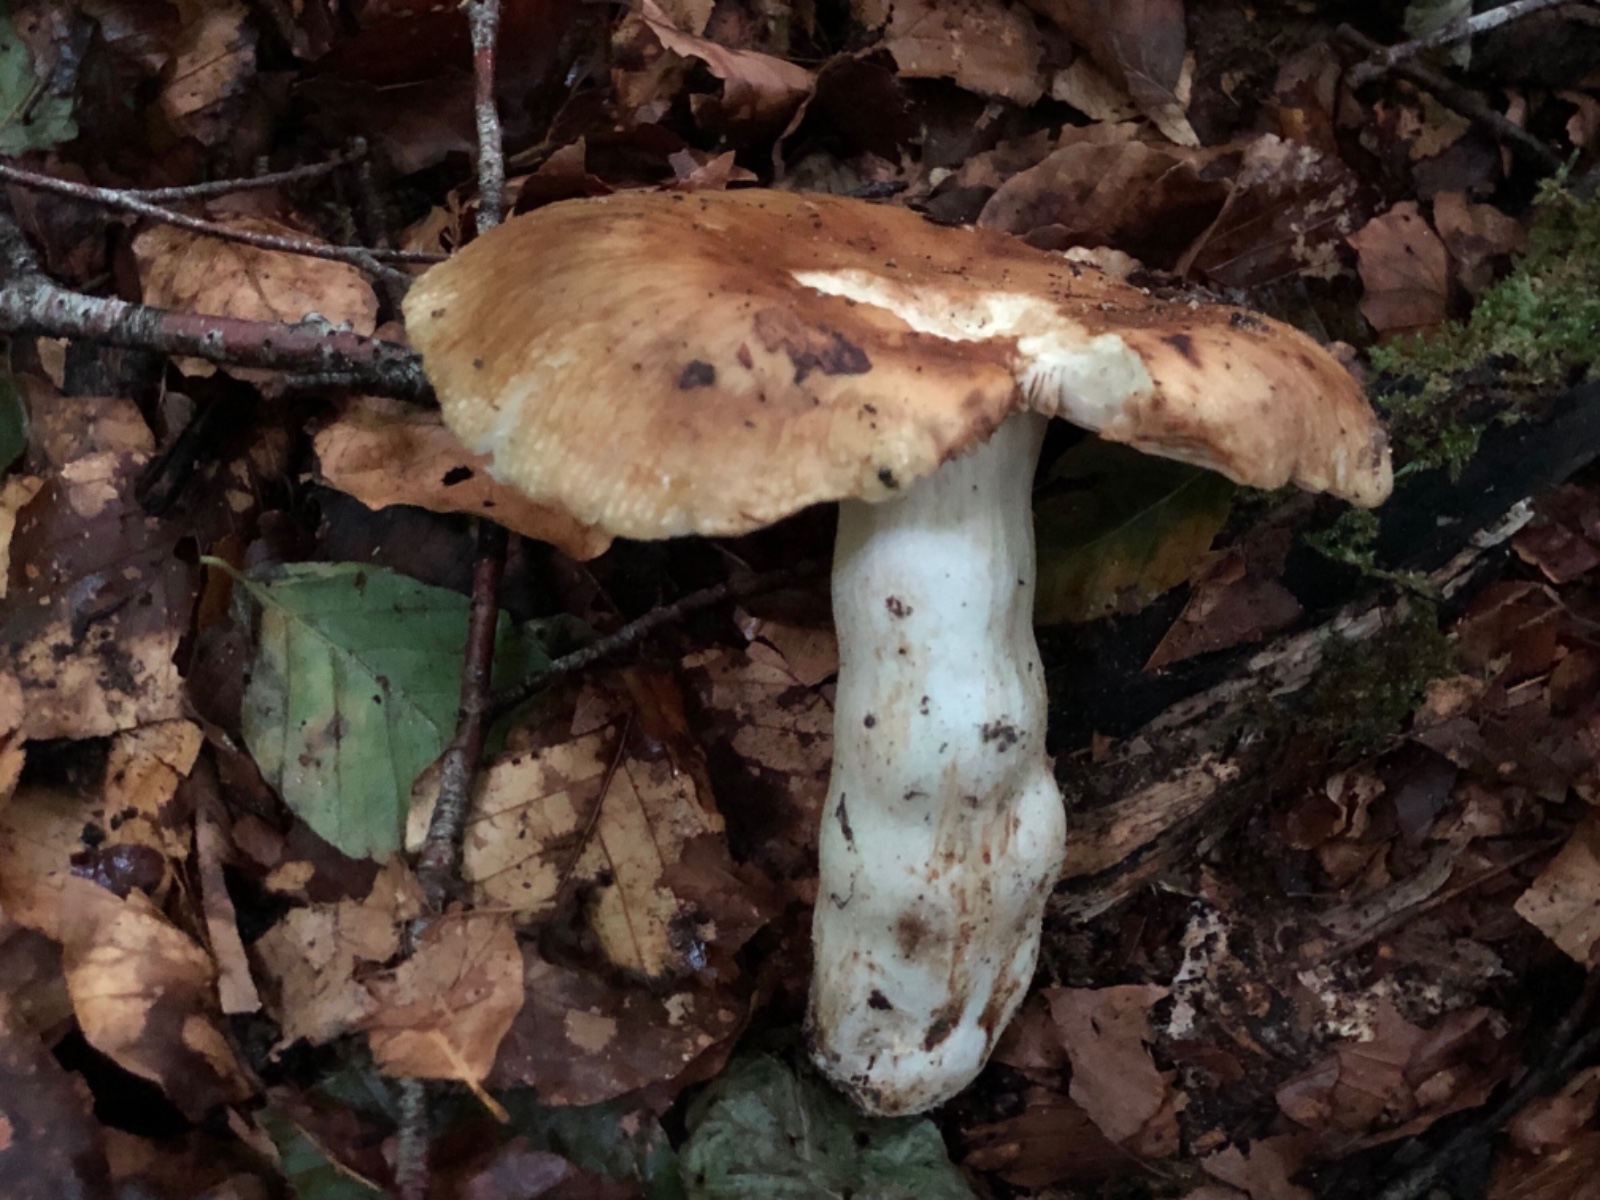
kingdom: Fungi
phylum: Basidiomycota
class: Agaricomycetes
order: Russulales
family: Russulaceae
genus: Russula
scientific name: Russula foetens
